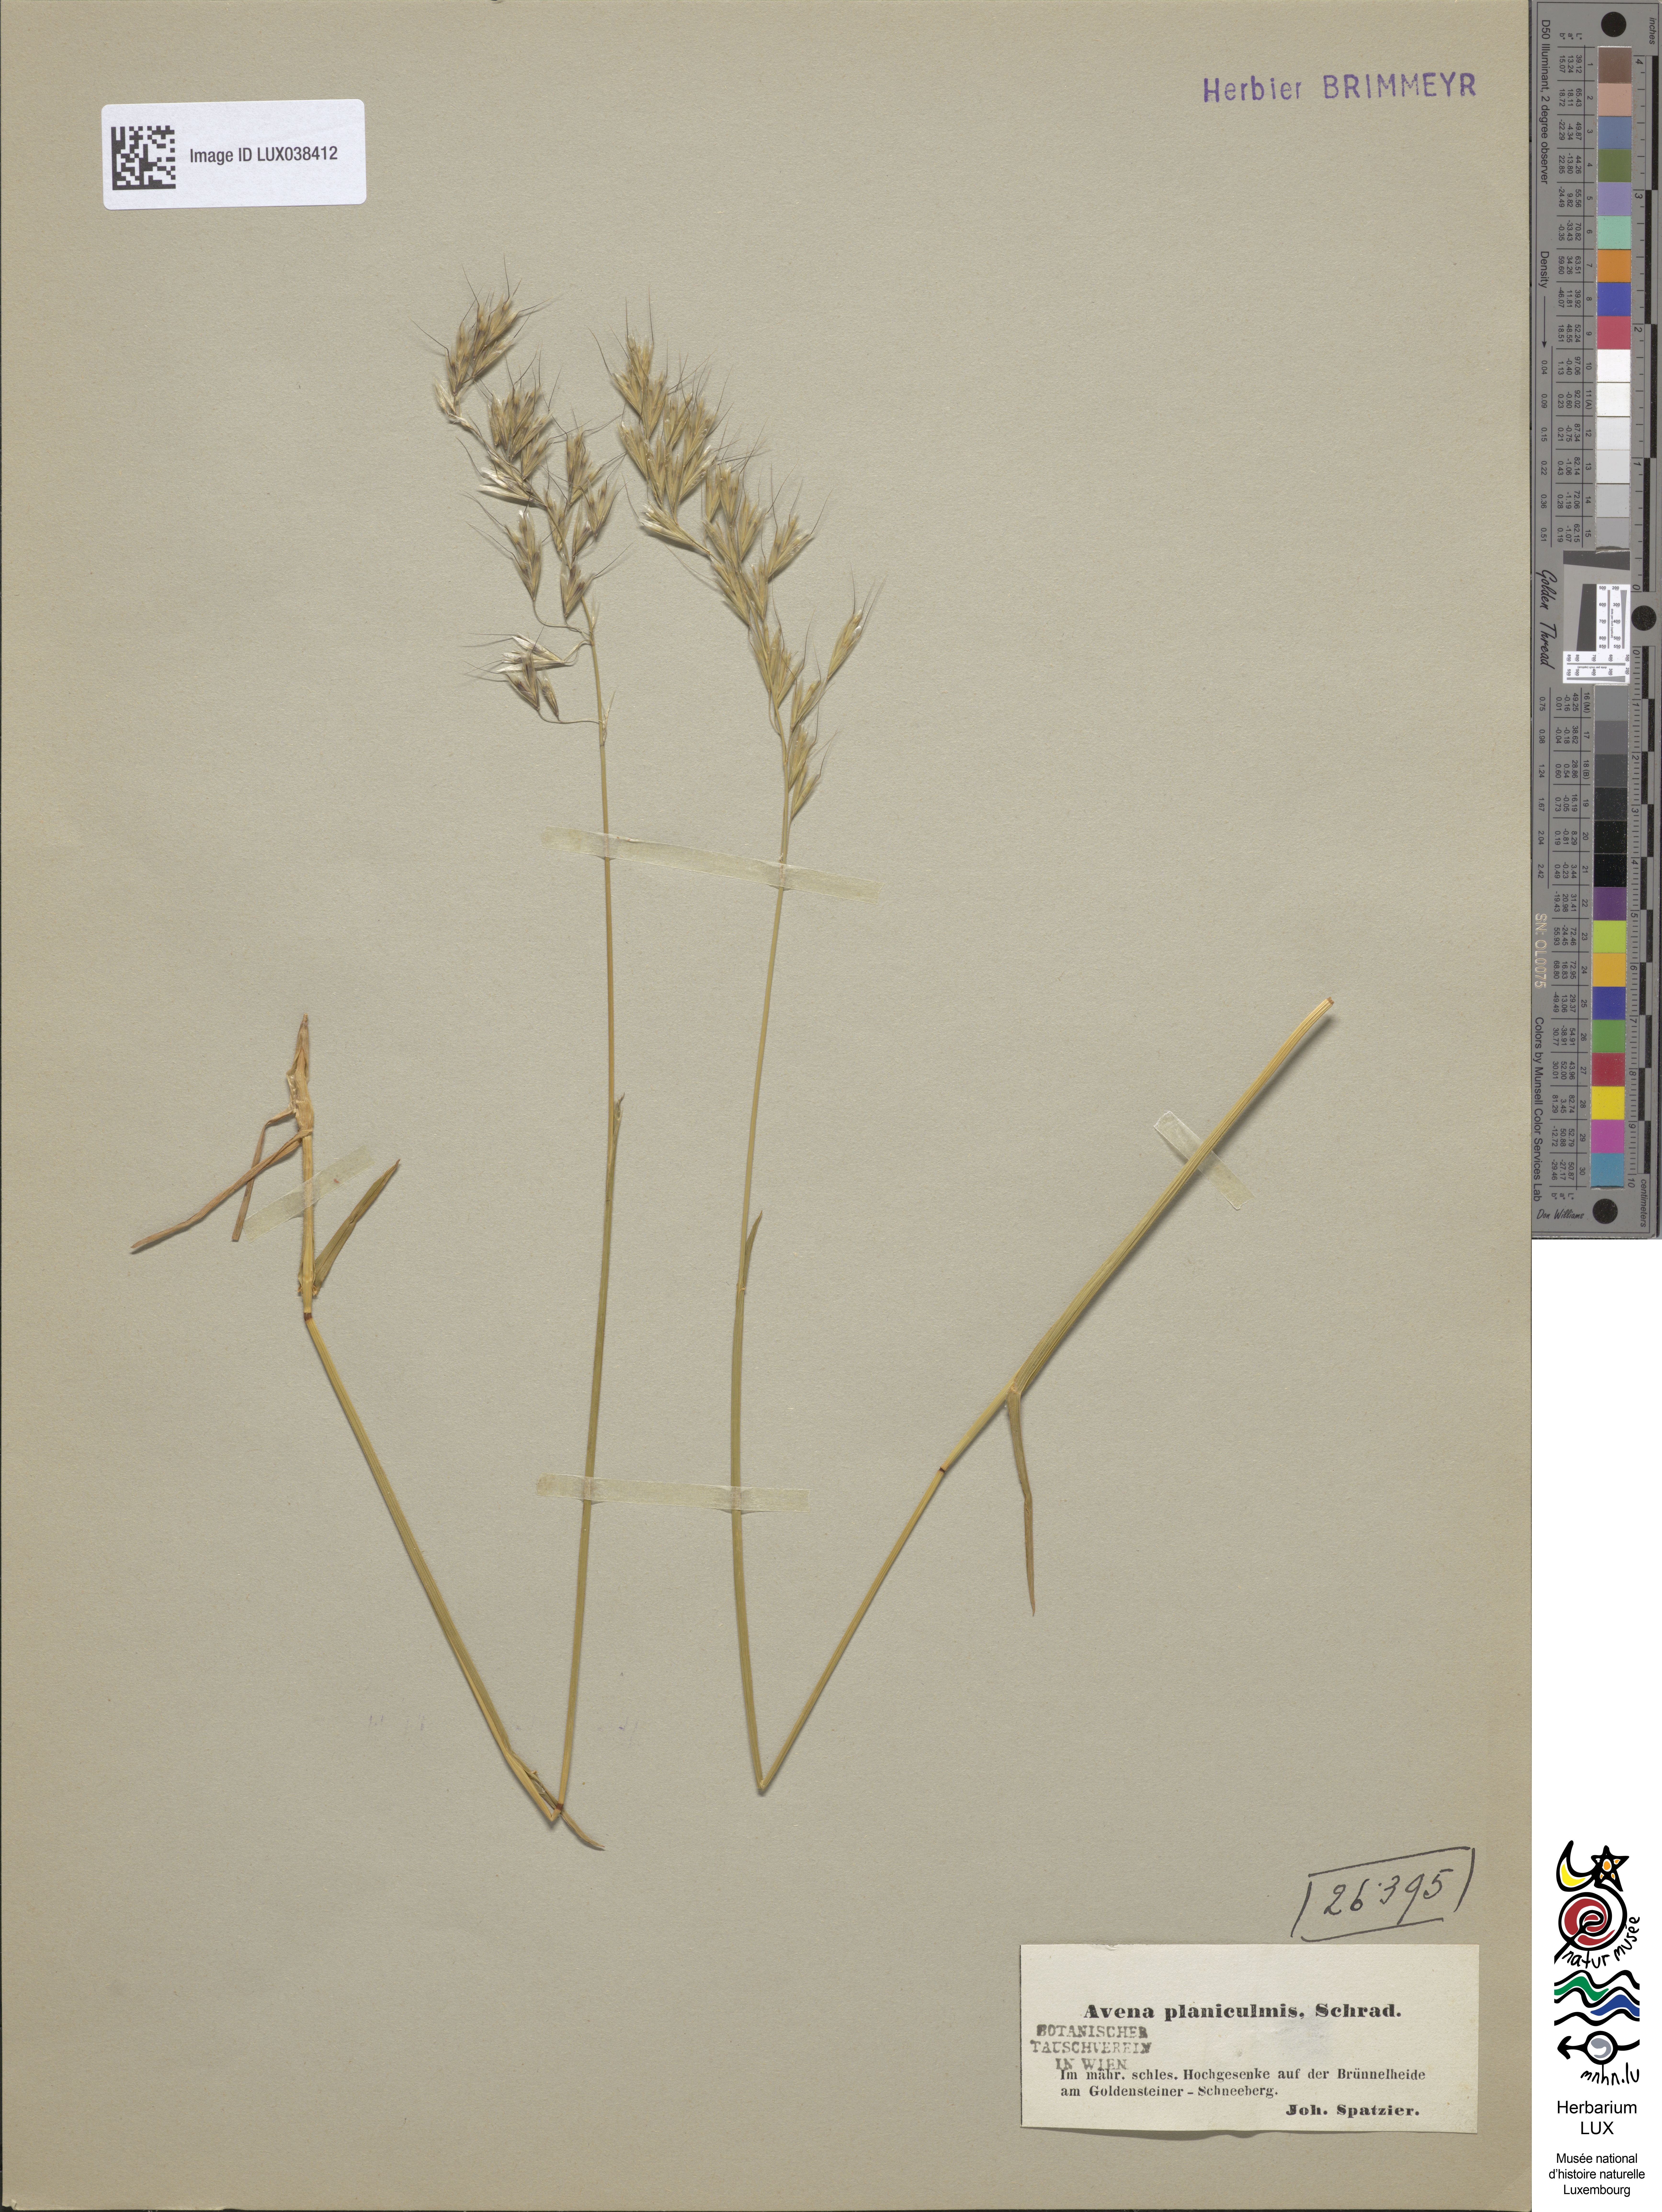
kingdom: Plantae
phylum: Tracheophyta
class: Liliopsida
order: Poales
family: Poaceae
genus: Helictochloa
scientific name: Helictochloa planiculmis
